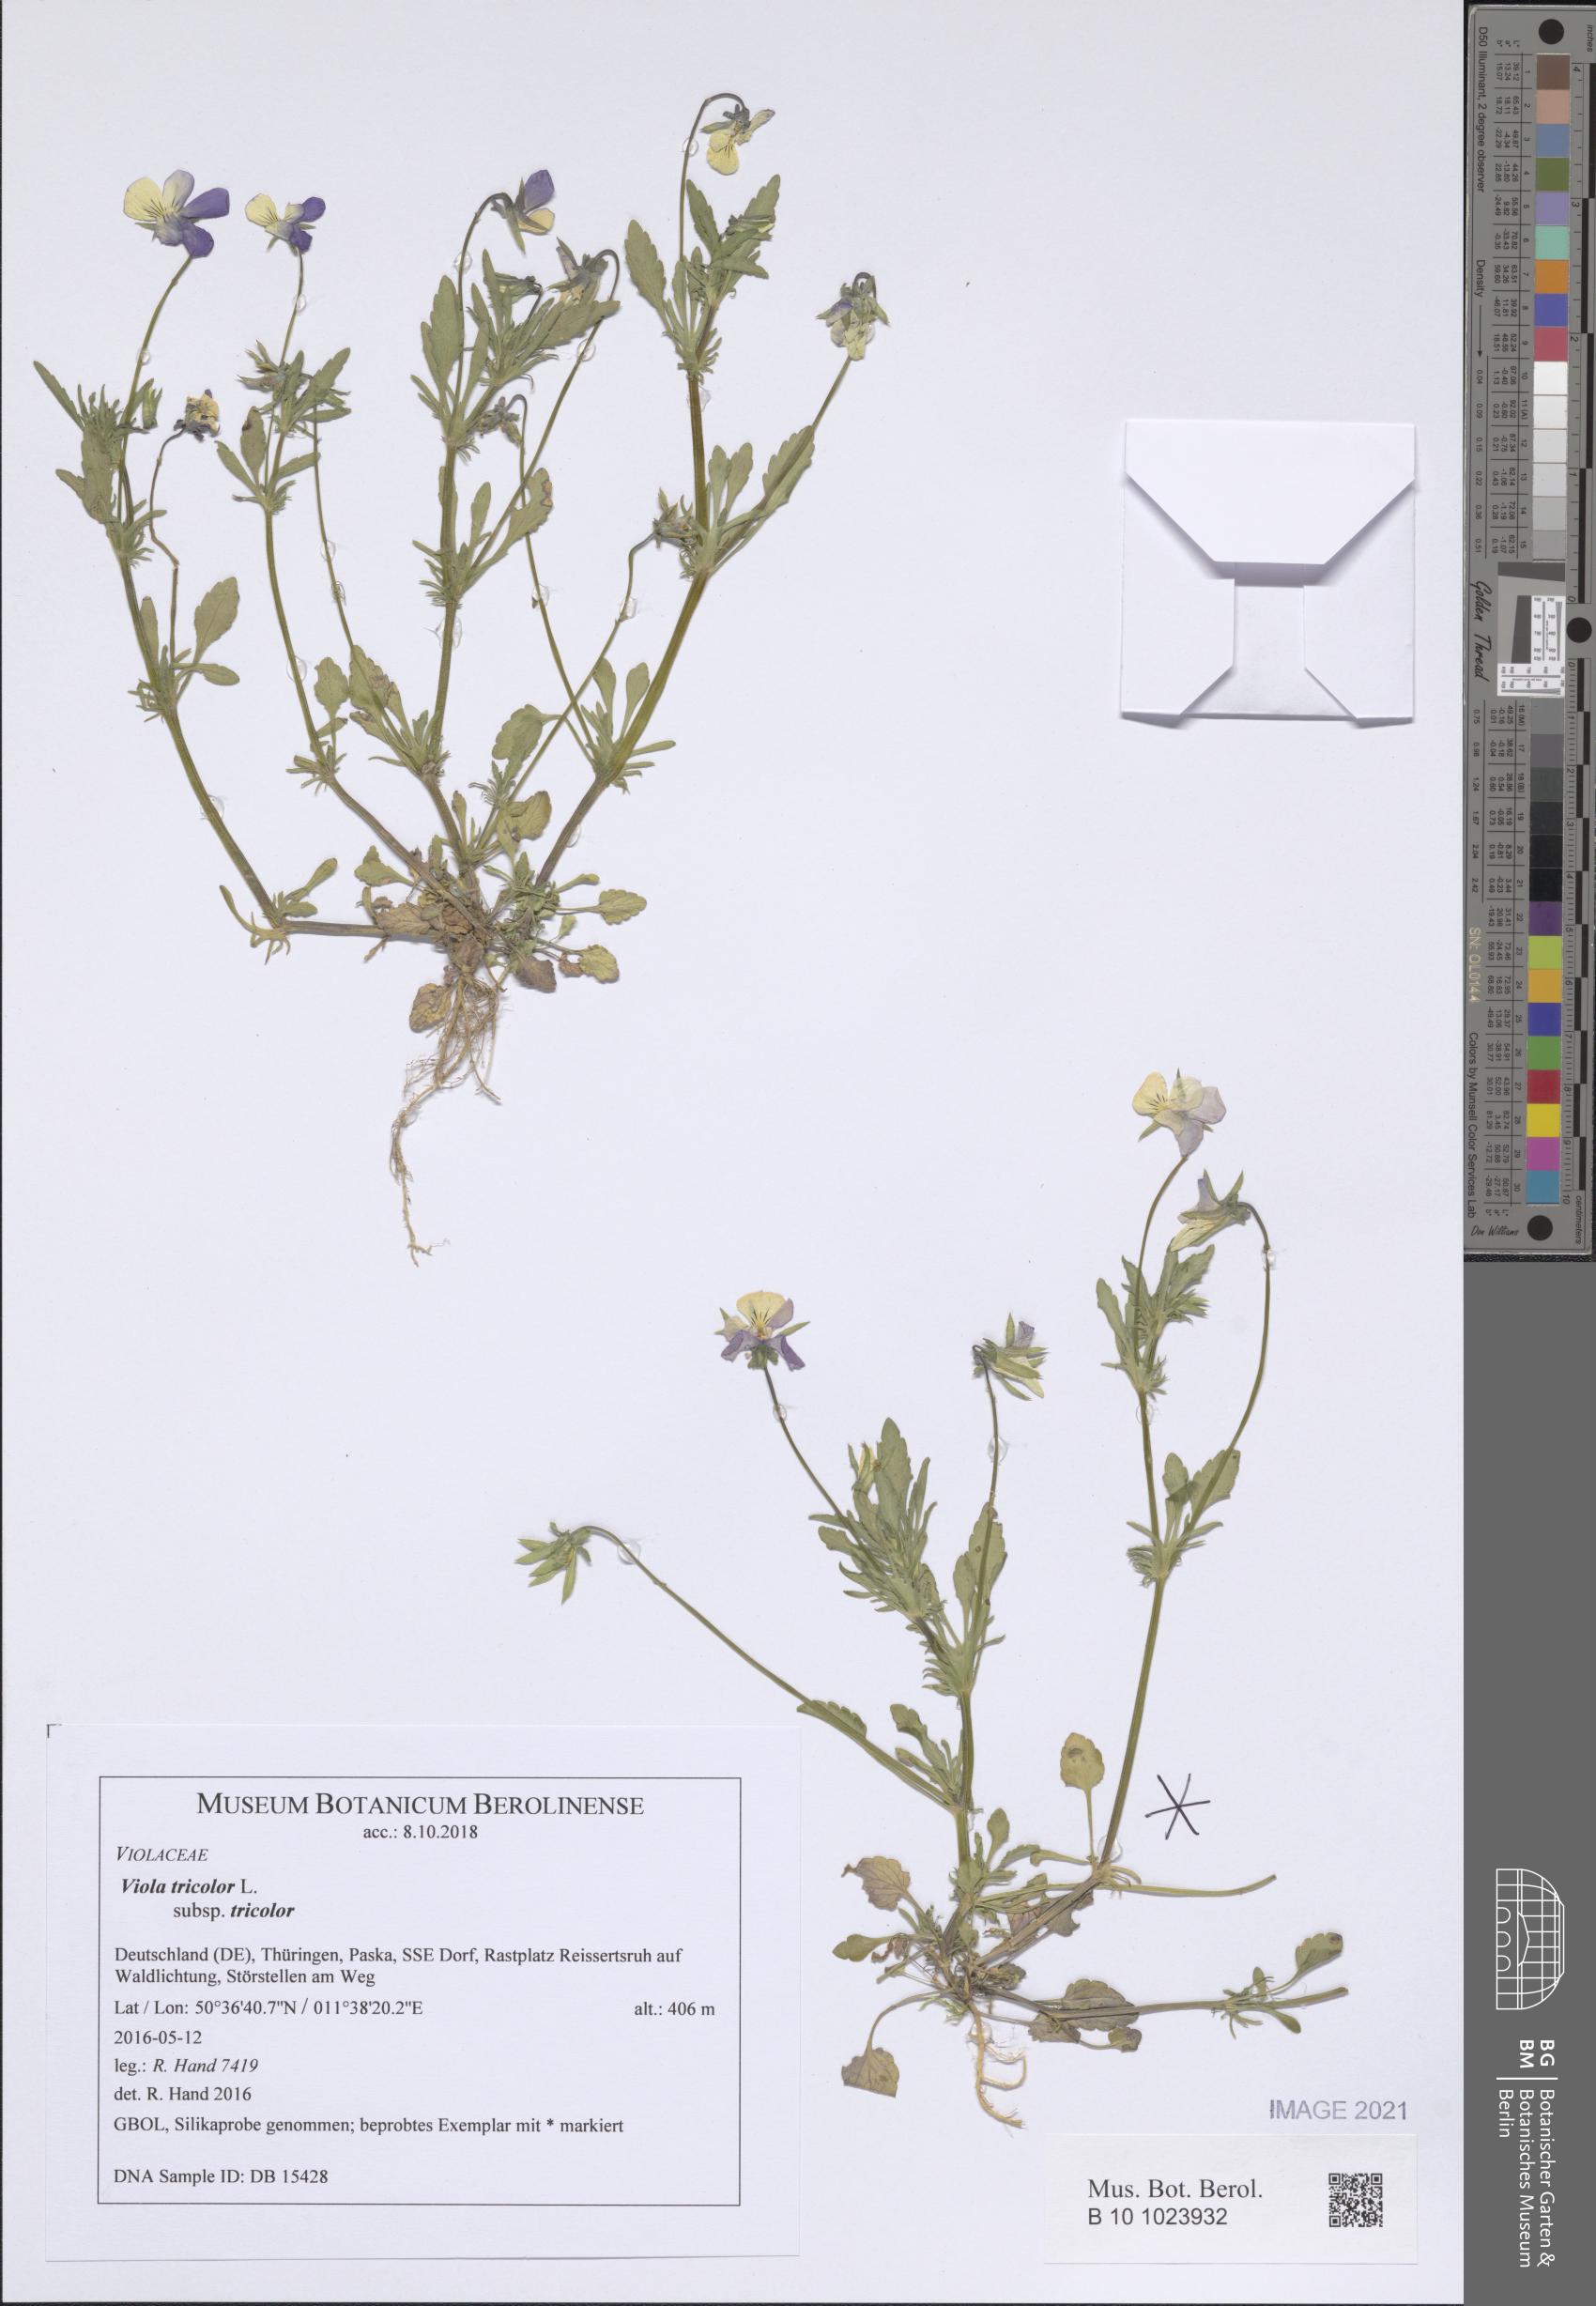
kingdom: Plantae
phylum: Tracheophyta
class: Magnoliopsida
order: Malpighiales
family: Violaceae
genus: Viola
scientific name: Viola tricolor
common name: Pansy
